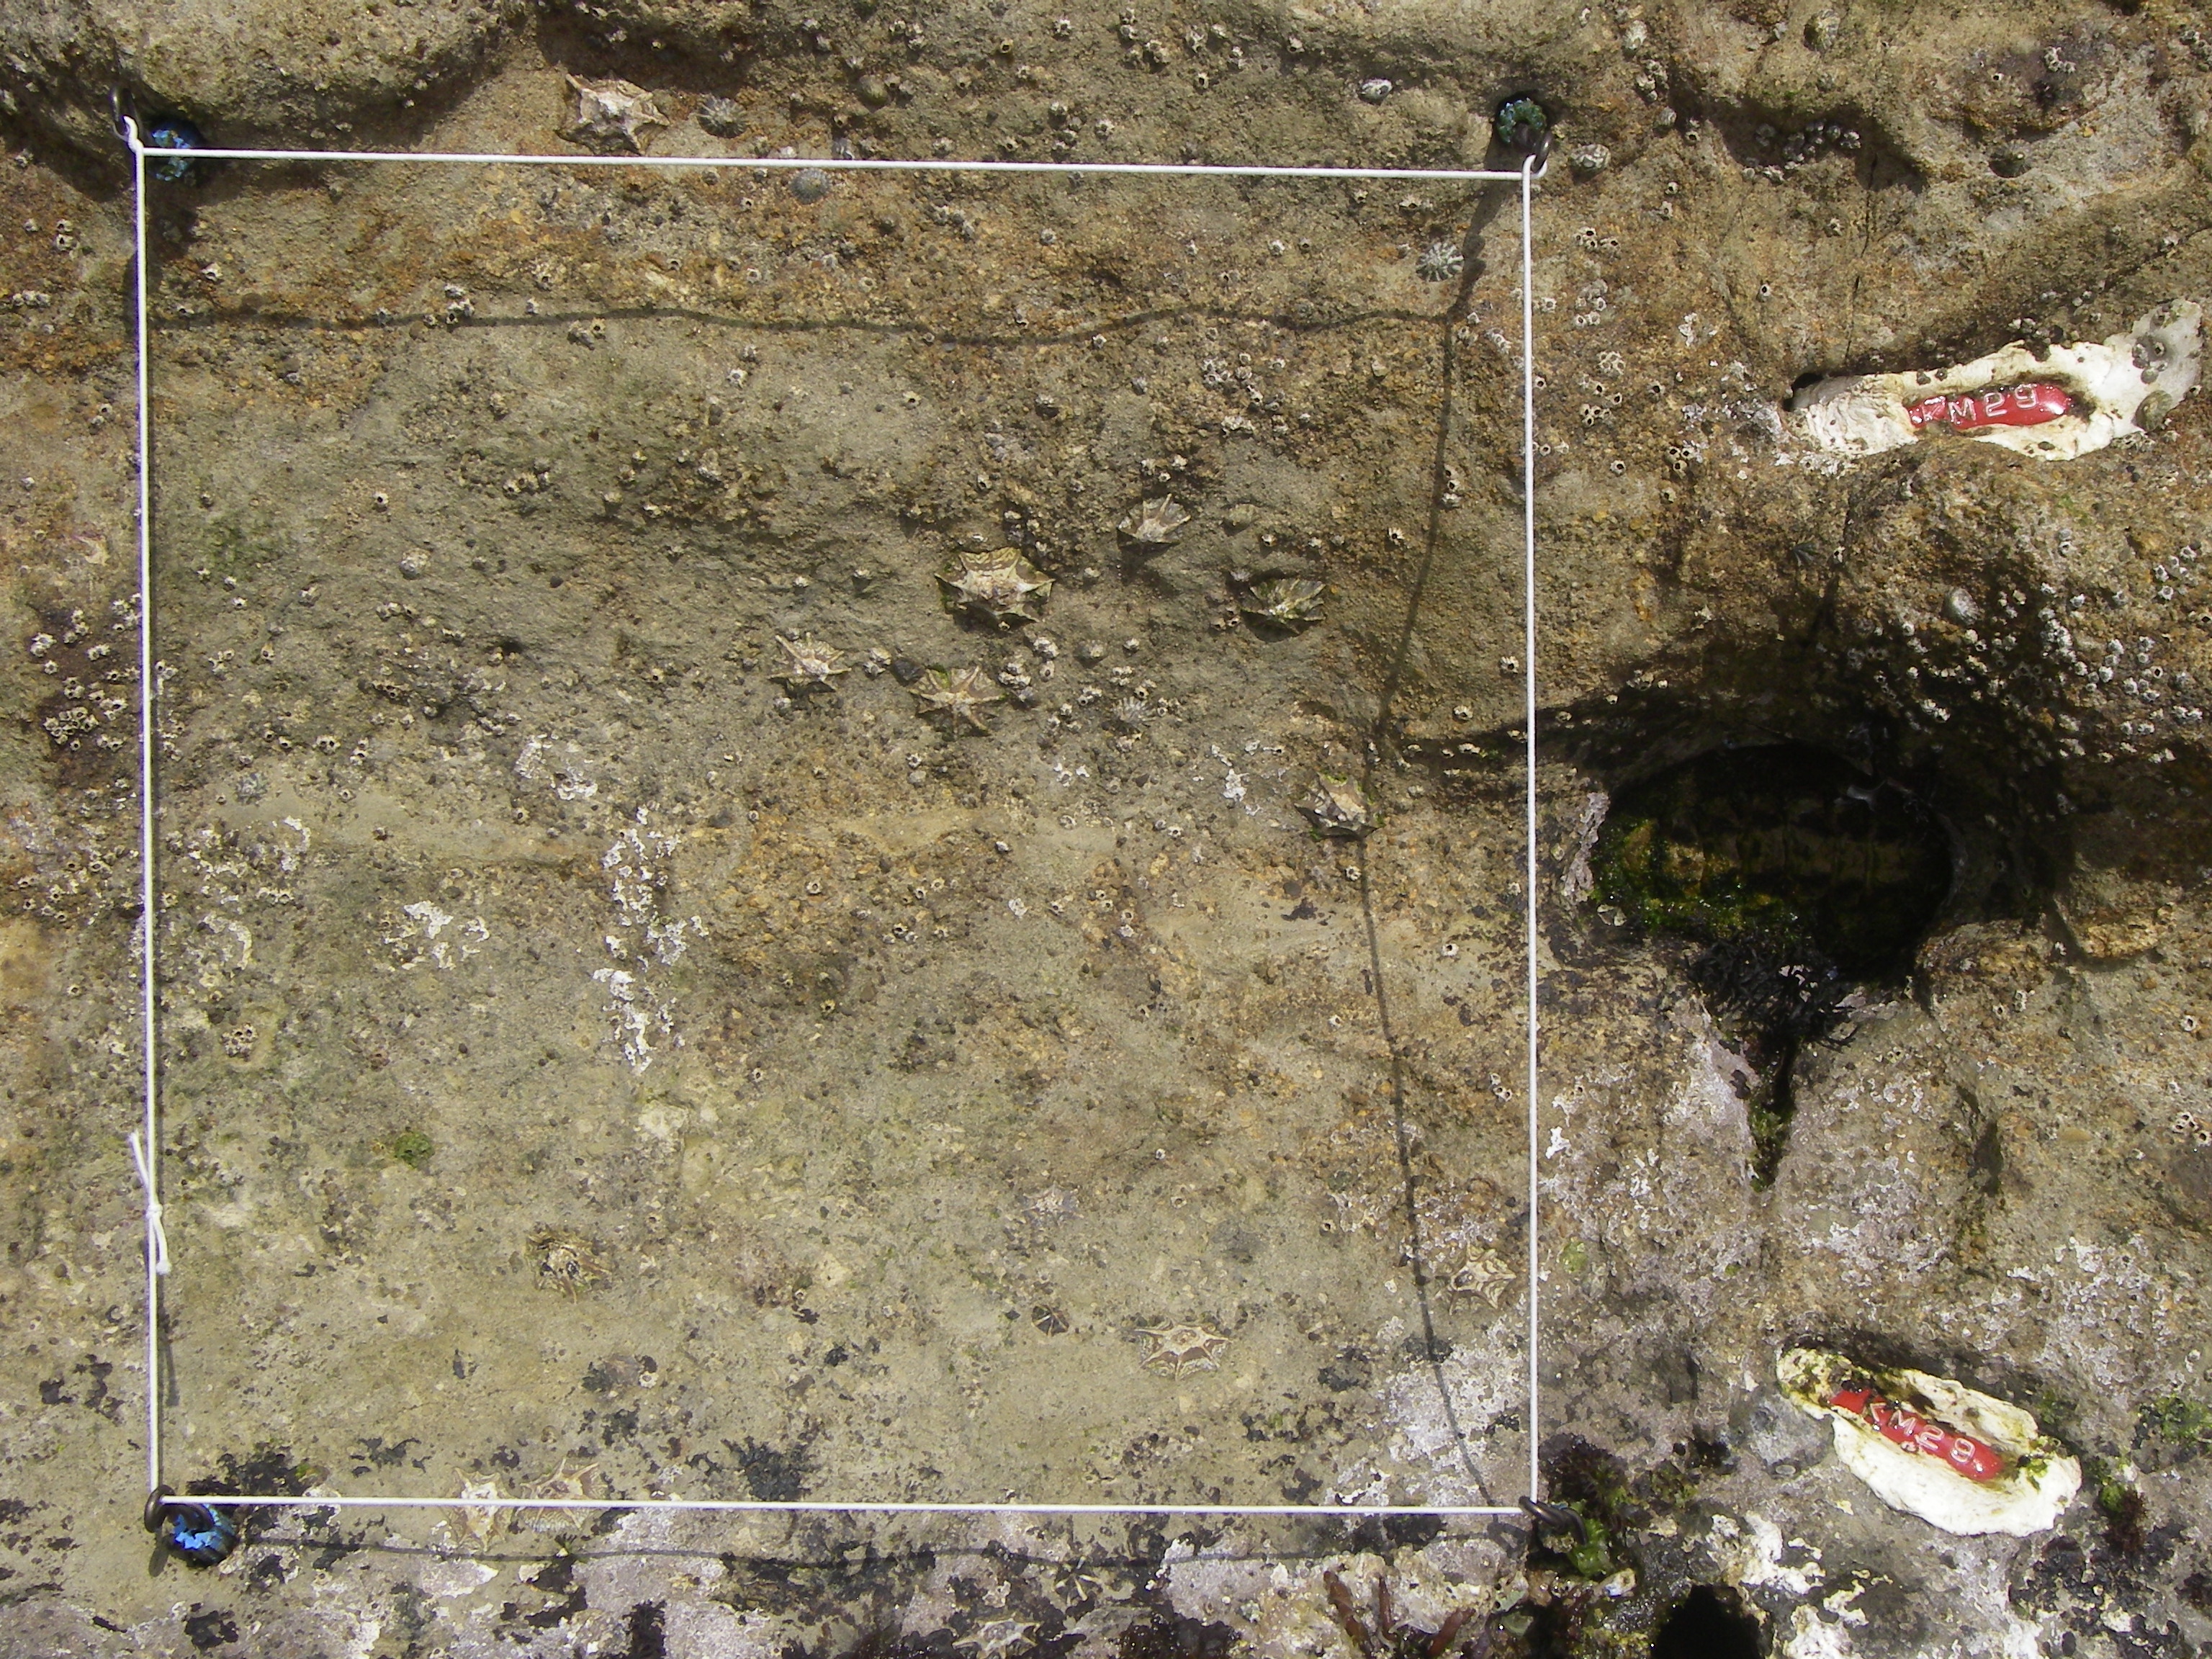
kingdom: Animalia
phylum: Arthropoda
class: Maxillopoda
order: Sessilia
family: Chthamalidae
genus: Chthamalus
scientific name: Chthamalus challengeri
